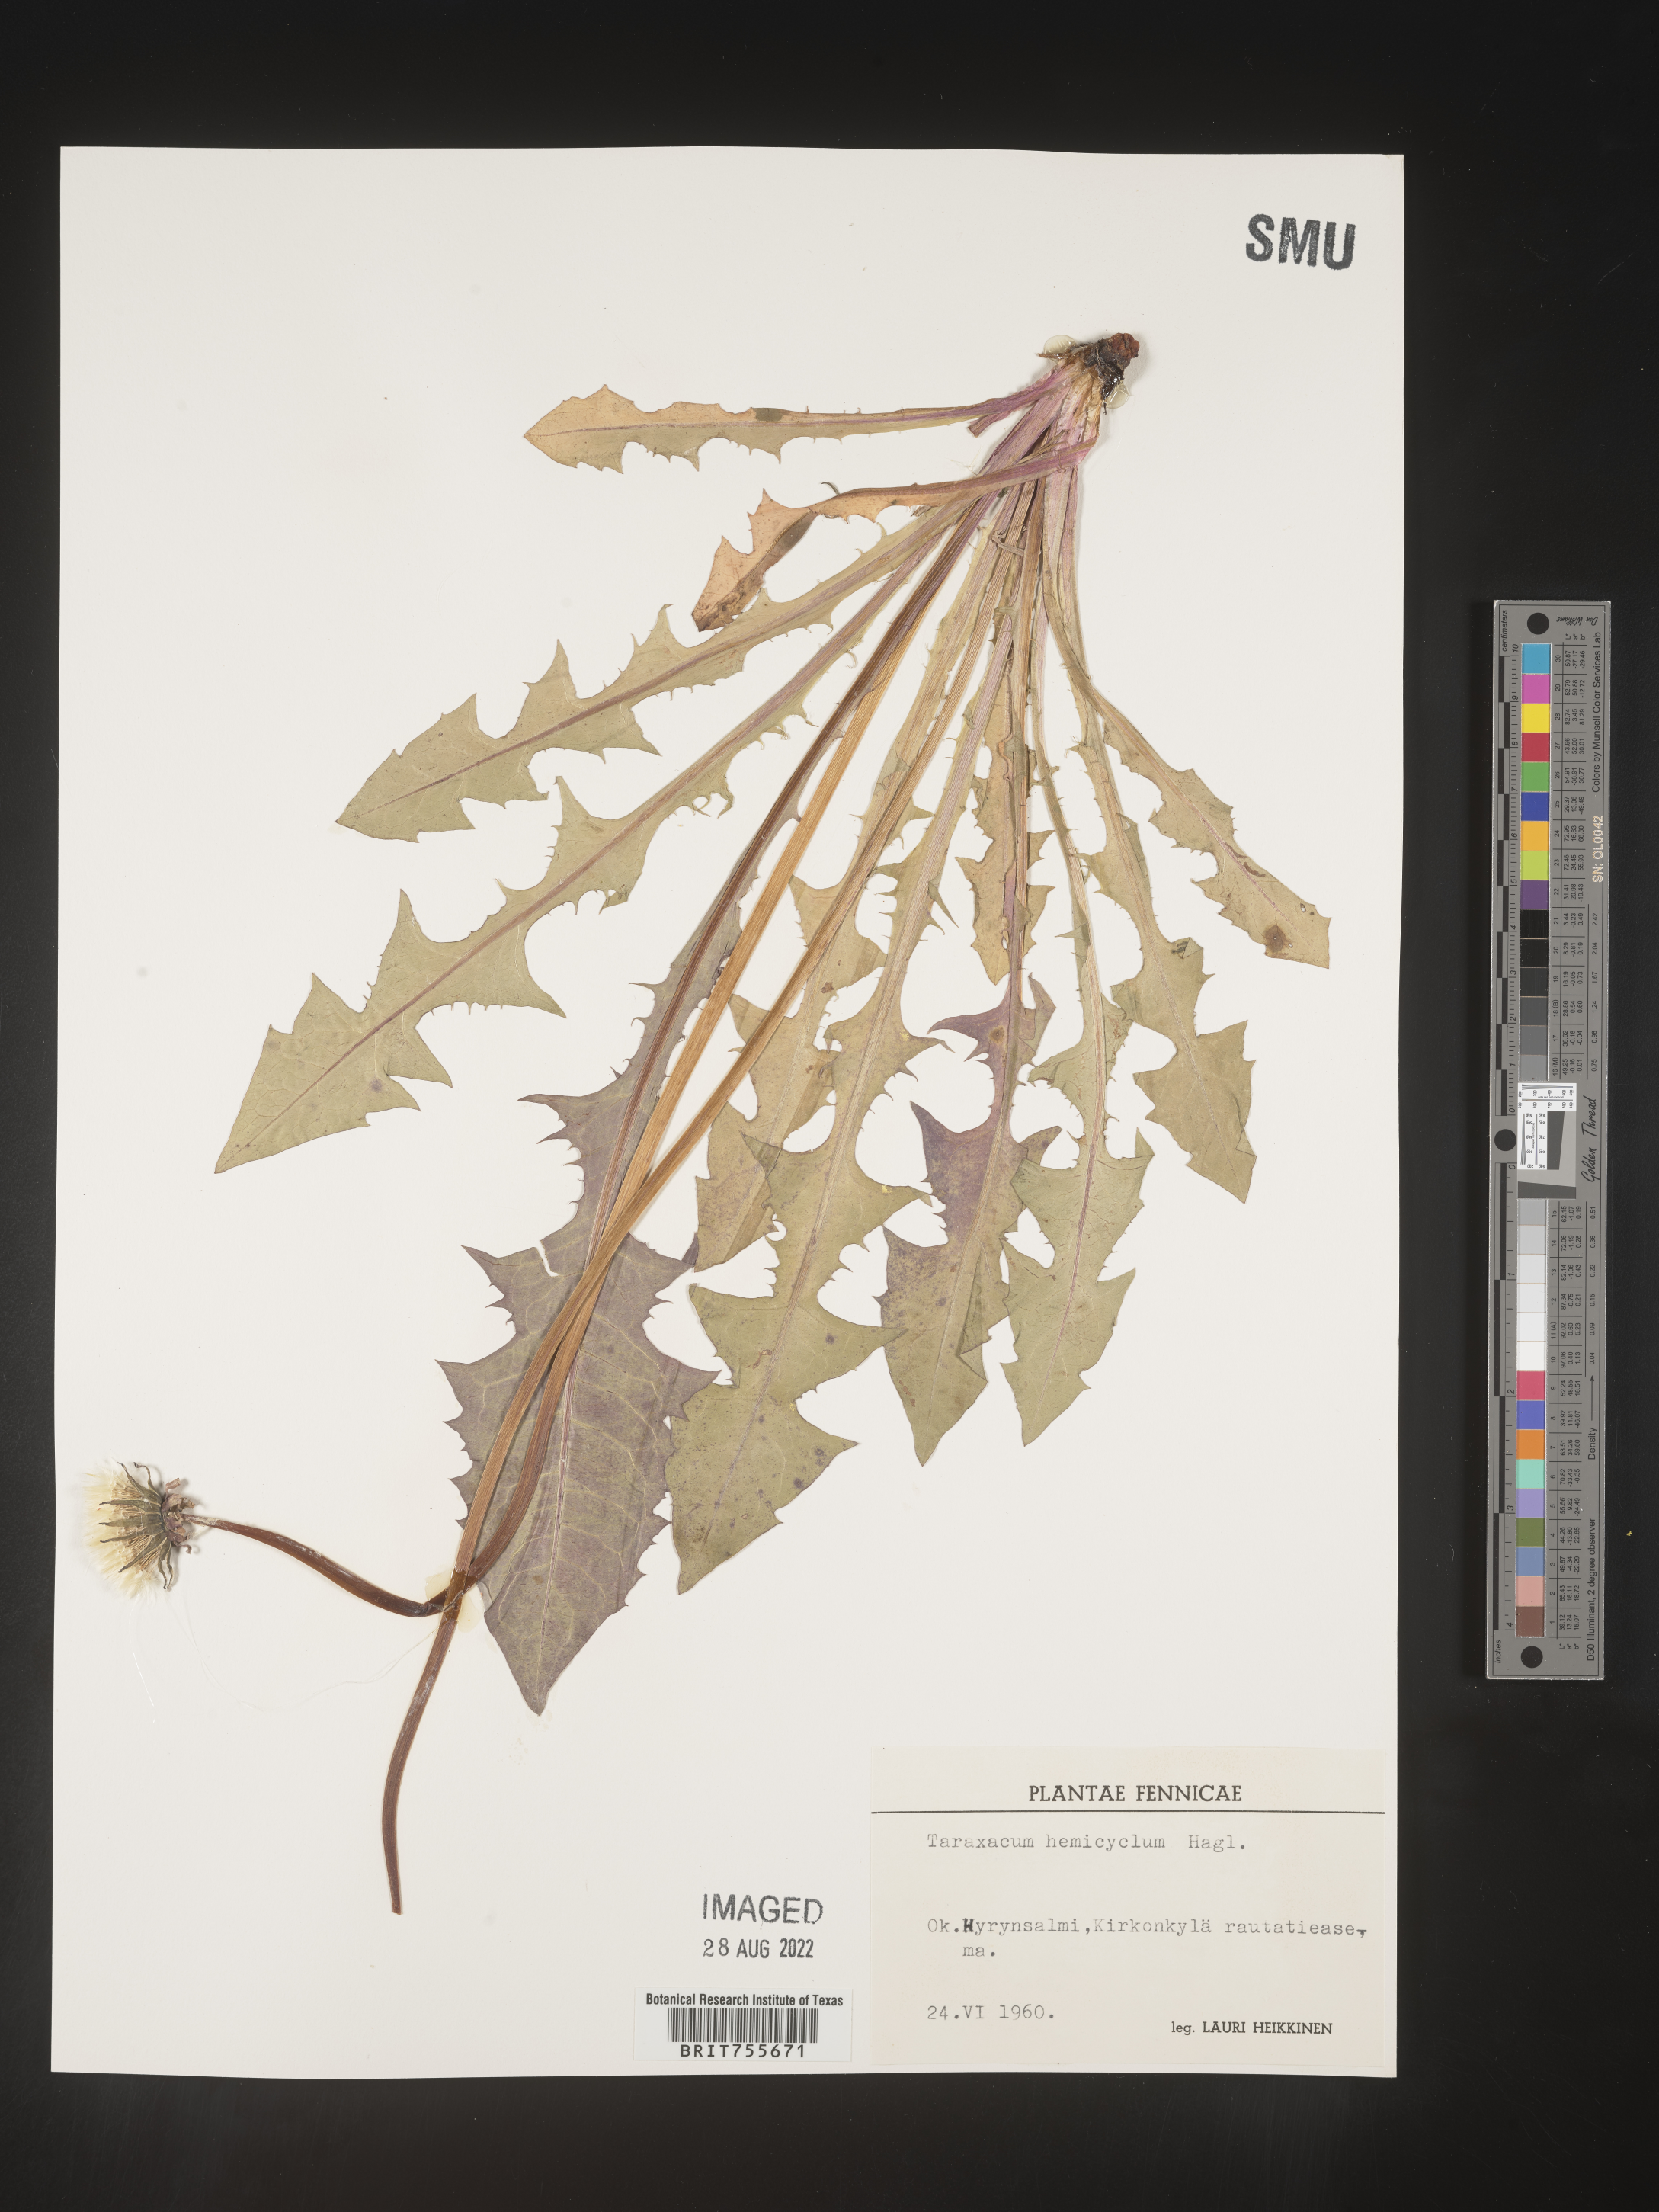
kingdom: Plantae
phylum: Tracheophyta
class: Magnoliopsida
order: Asterales
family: Asteraceae
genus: Taraxacum
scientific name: Taraxacum
